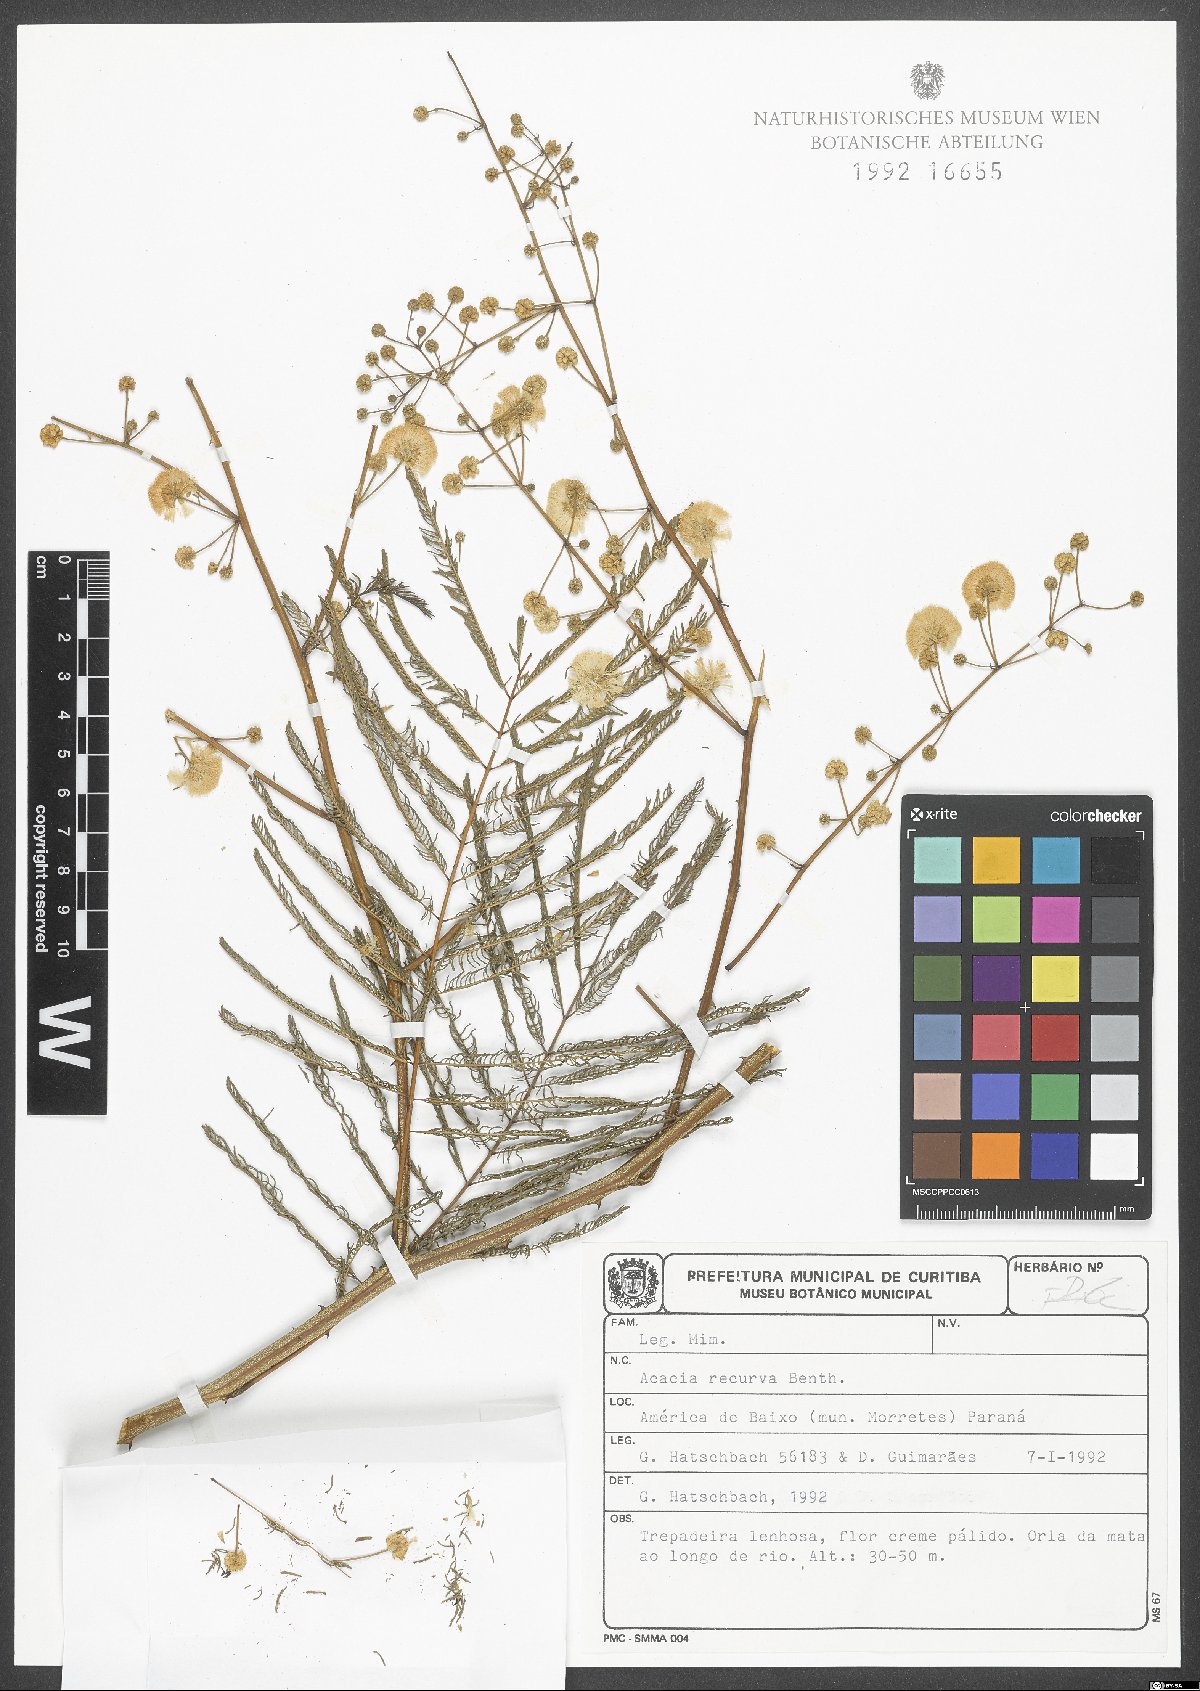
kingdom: Plantae
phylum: Tracheophyta
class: Magnoliopsida
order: Fabales
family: Fabaceae
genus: Senegalia
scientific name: Senegalia recurva
